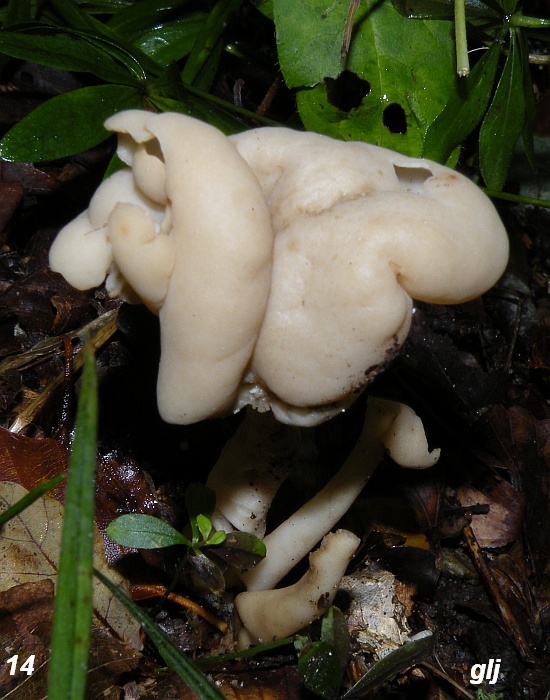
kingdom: Fungi
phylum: Ascomycota
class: Pezizomycetes
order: Pezizales
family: Helvellaceae
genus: Helvella
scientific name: Helvella elastica
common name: elastik-foldhat
